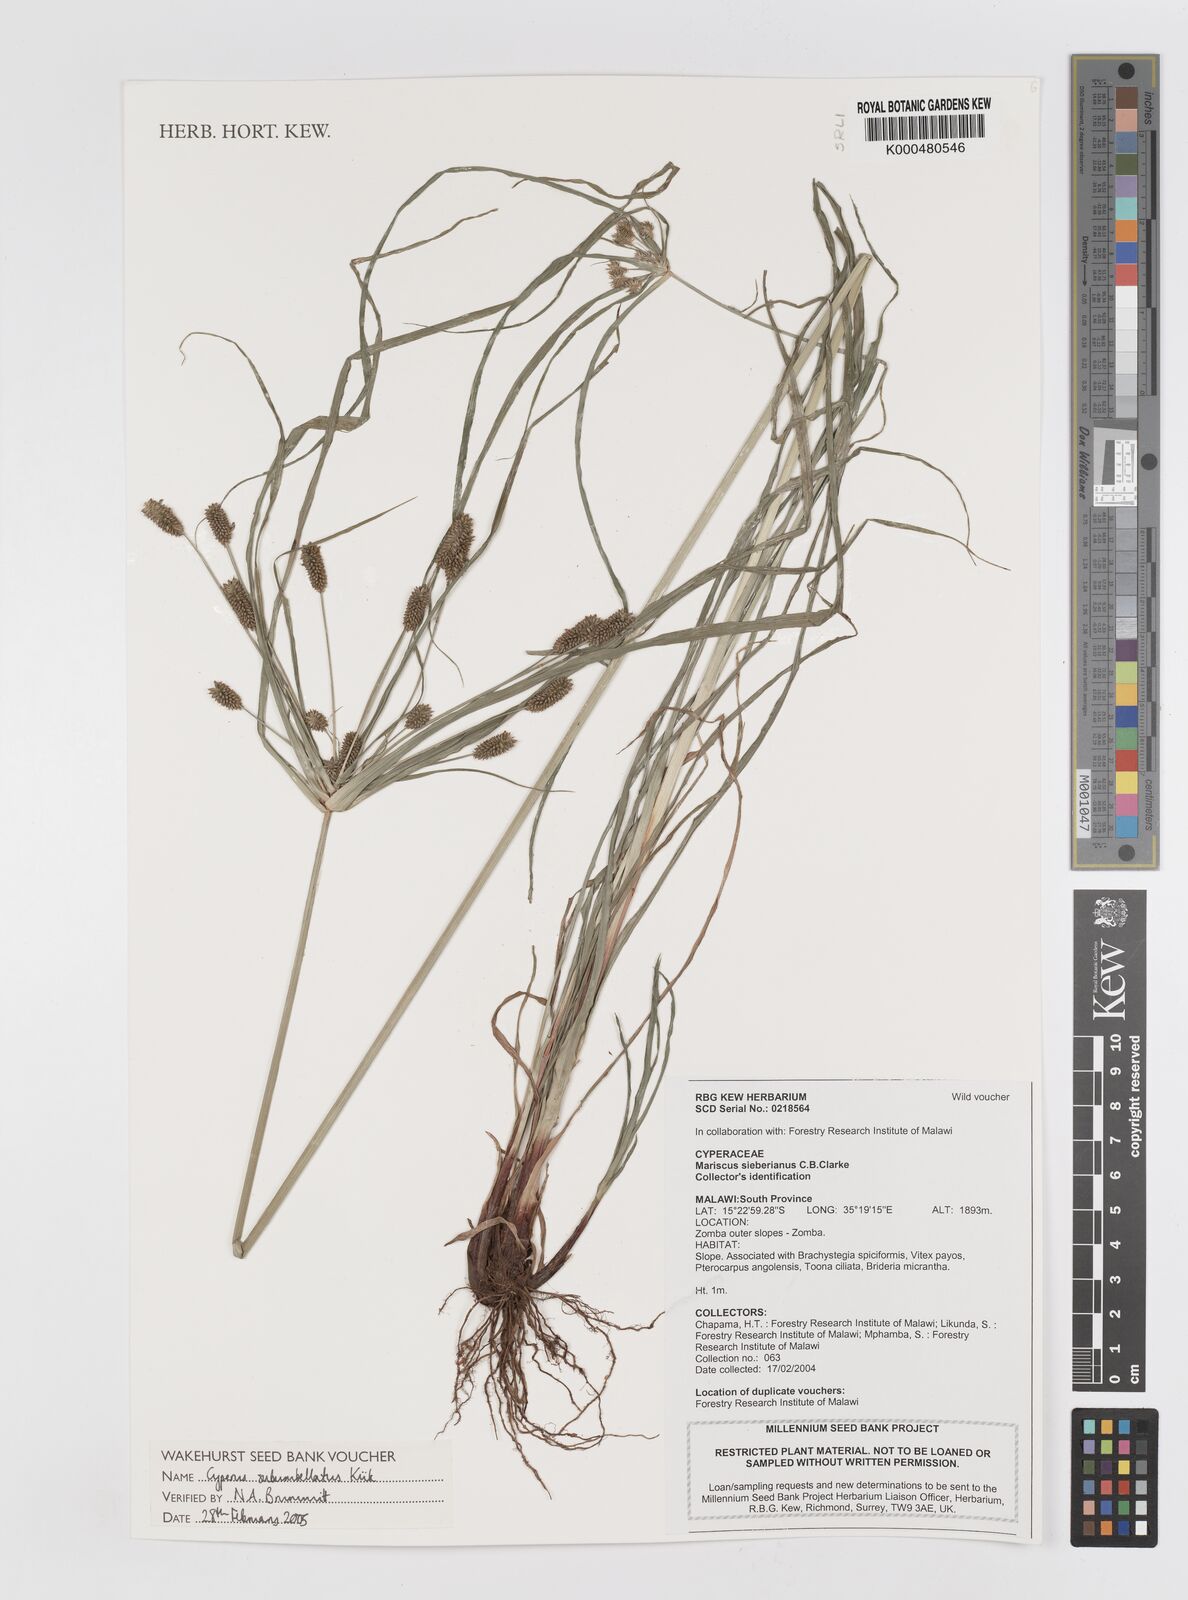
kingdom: Plantae
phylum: Tracheophyta
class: Liliopsida
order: Poales
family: Cyperaceae
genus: Cyperus
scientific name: Cyperus cyperoides
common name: Pacific island flat sedge
